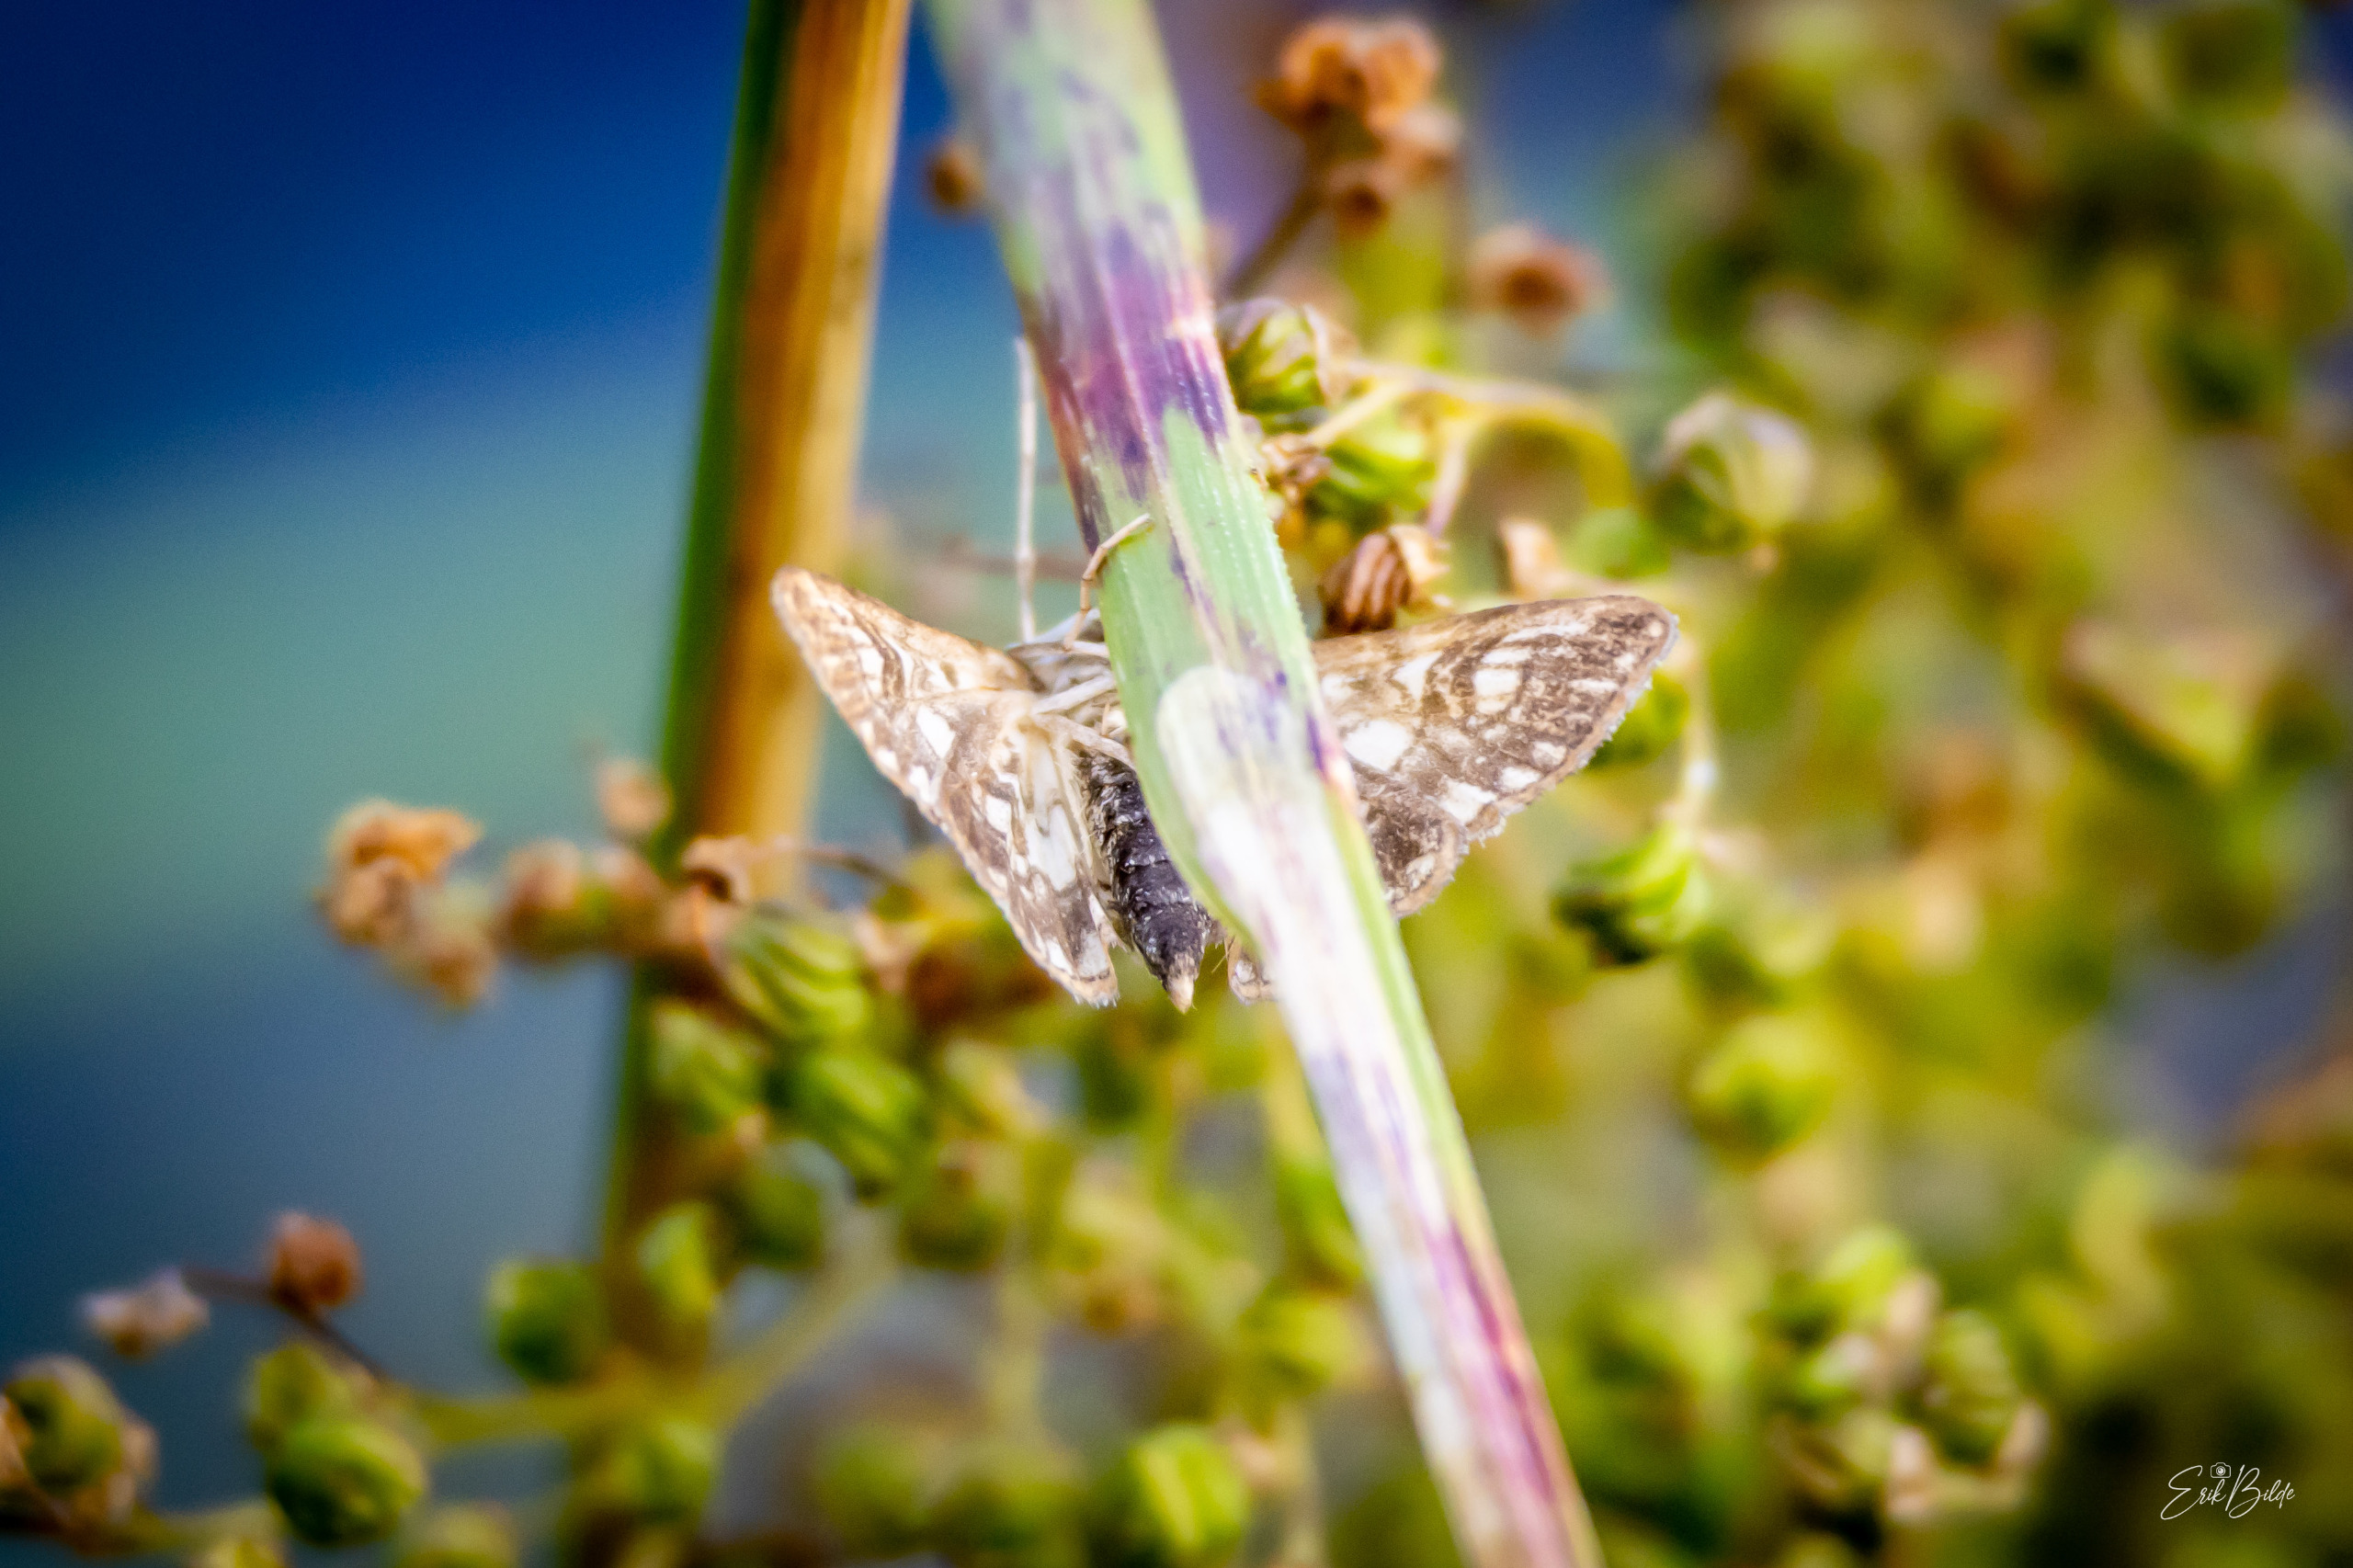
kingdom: Animalia
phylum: Arthropoda
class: Insecta
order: Lepidoptera
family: Crambidae
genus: Elophila
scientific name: Elophila nymphaeata
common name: Åkandehalvmøl
